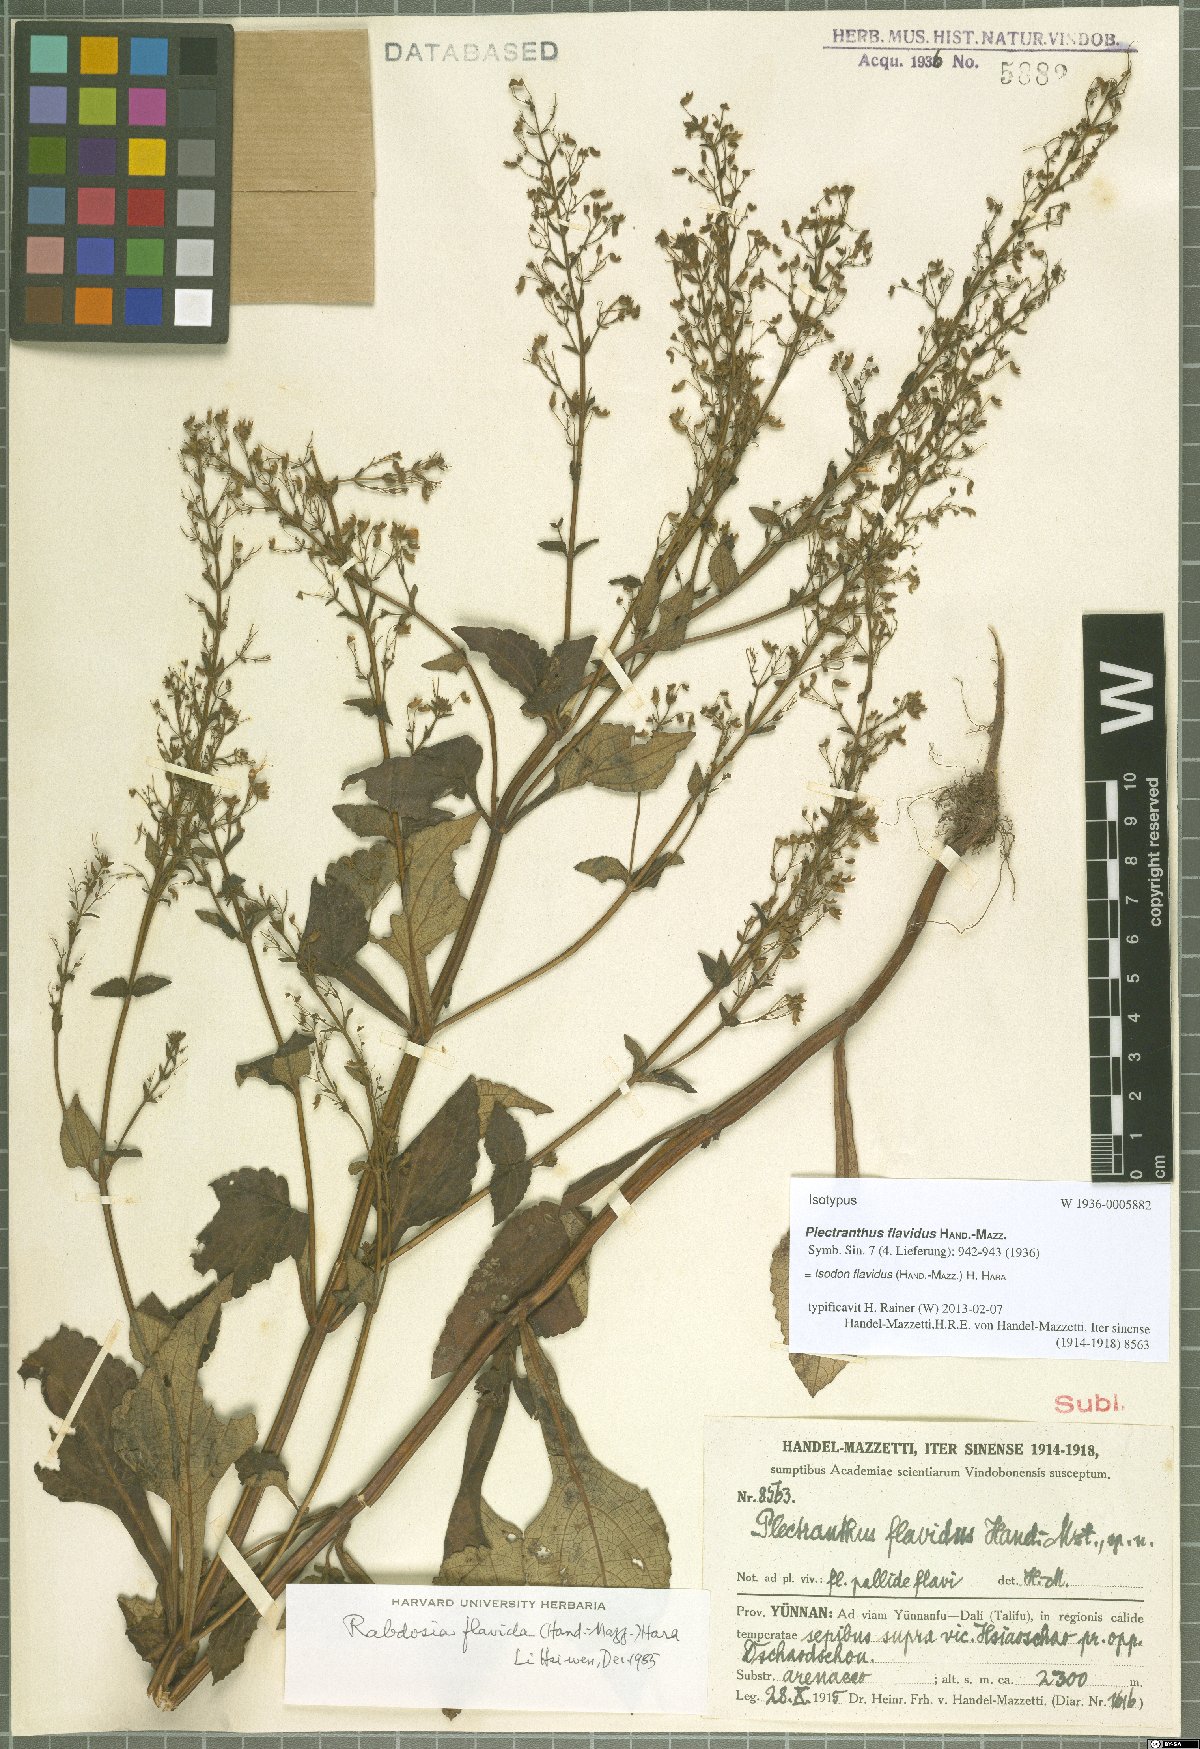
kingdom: Plantae
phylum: Tracheophyta
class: Magnoliopsida
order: Lamiales
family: Lamiaceae
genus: Isodon
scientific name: Isodon flavidus
